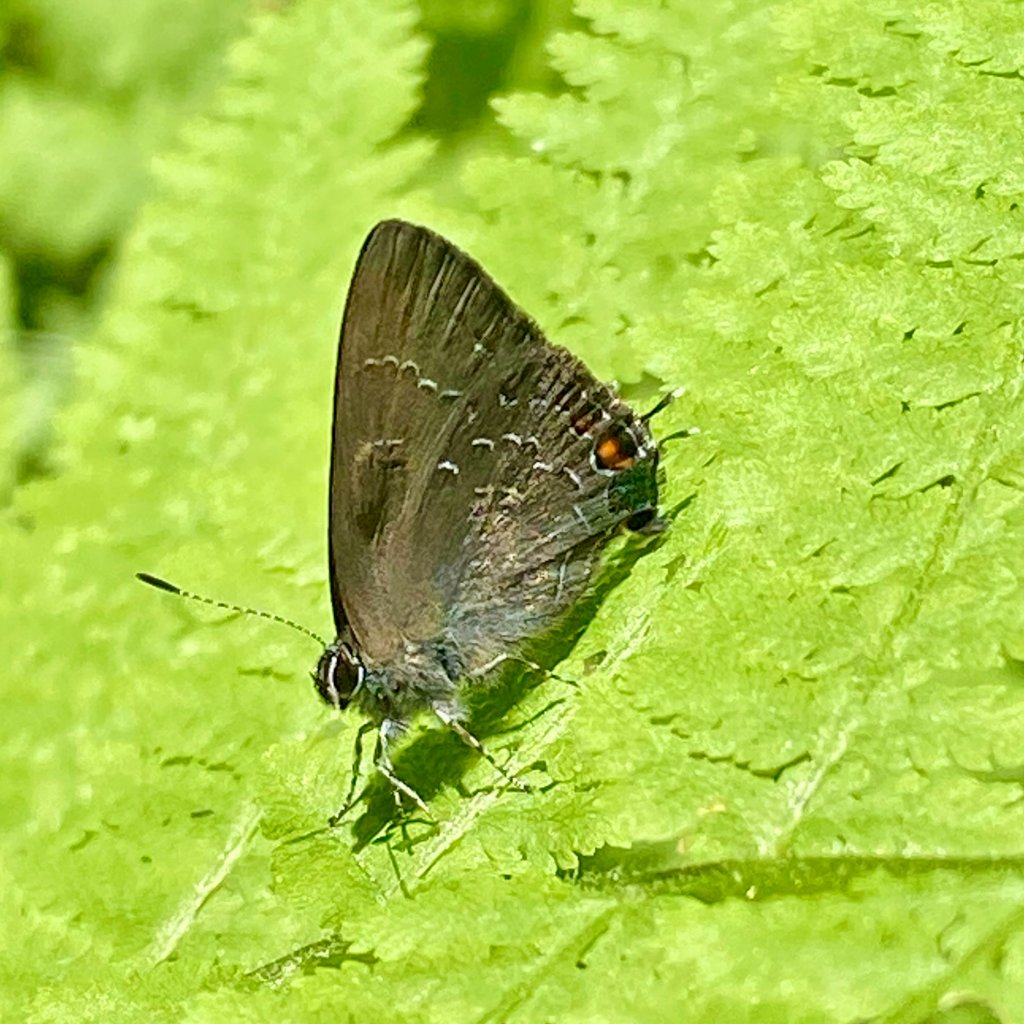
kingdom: Animalia
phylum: Arthropoda
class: Insecta
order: Lepidoptera
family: Lycaenidae
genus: Satyrium
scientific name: Satyrium calanus
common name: Banded Hairstreak
